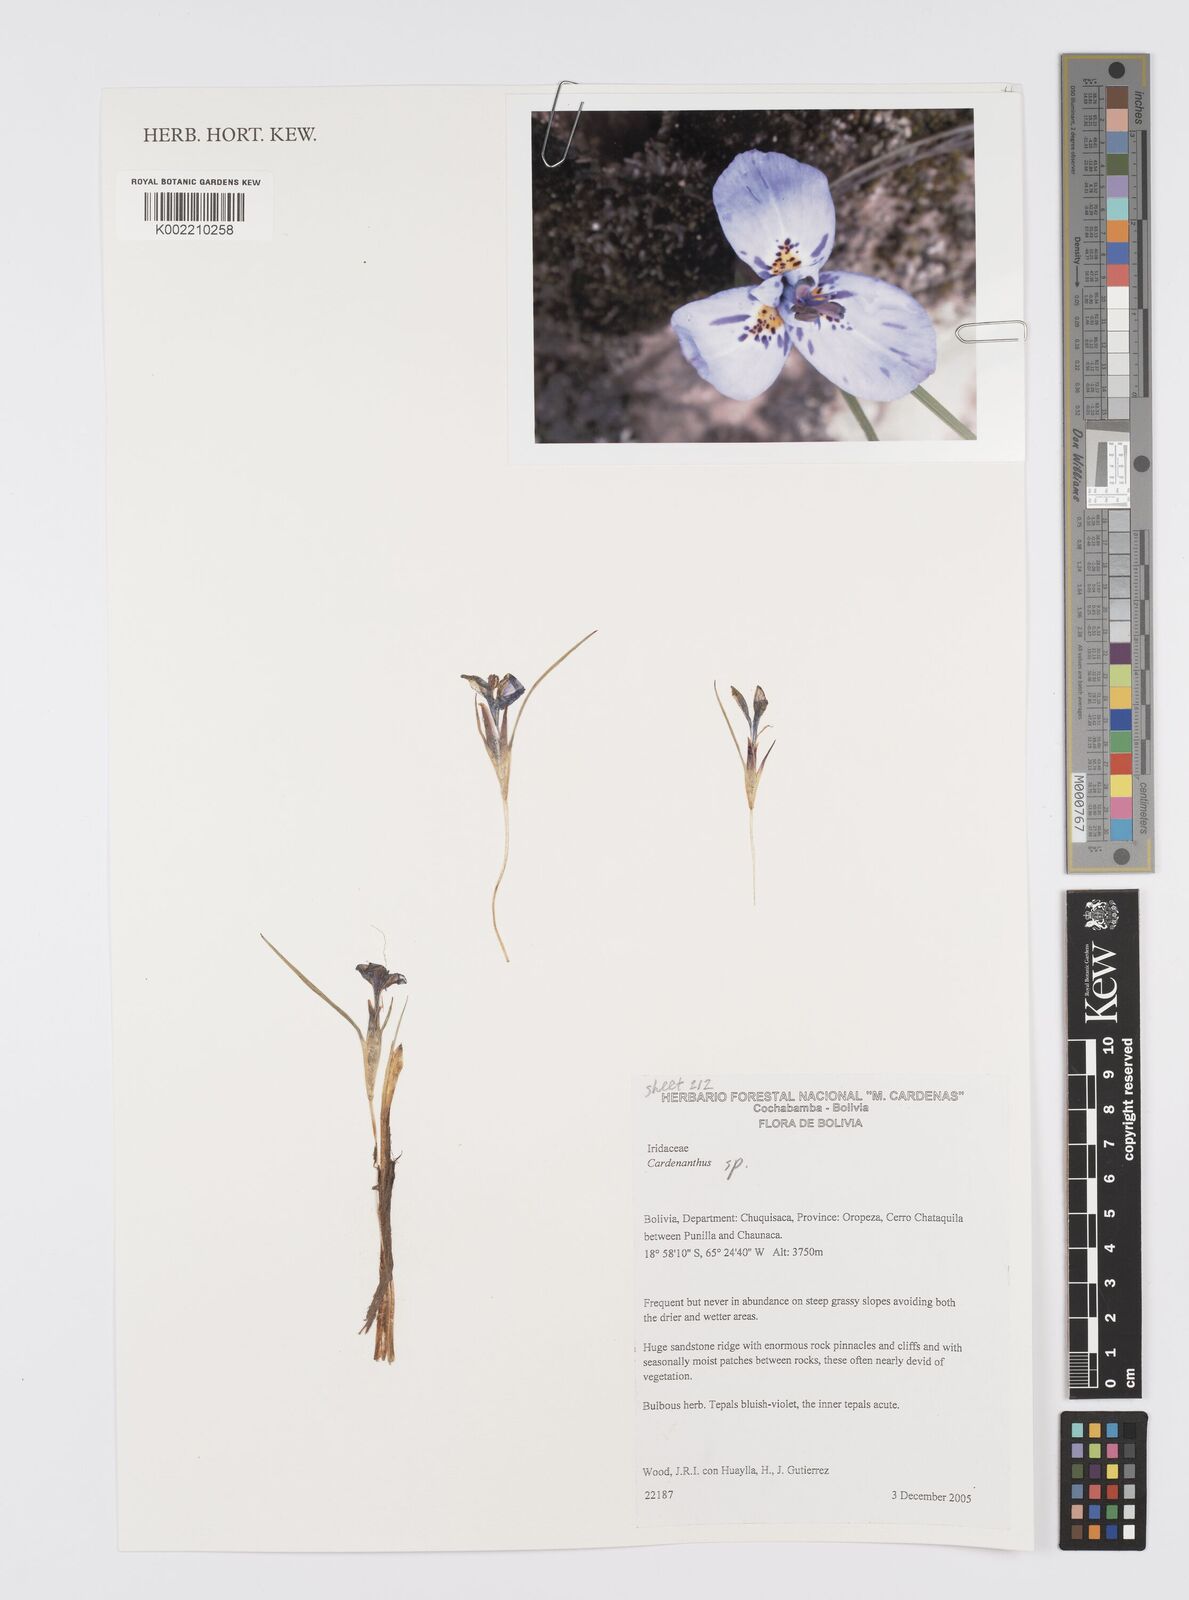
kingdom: Plantae
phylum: Tracheophyta
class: Liliopsida
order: Asparagales
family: Iridaceae
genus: Mastigostyla
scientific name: Mastigostyla
